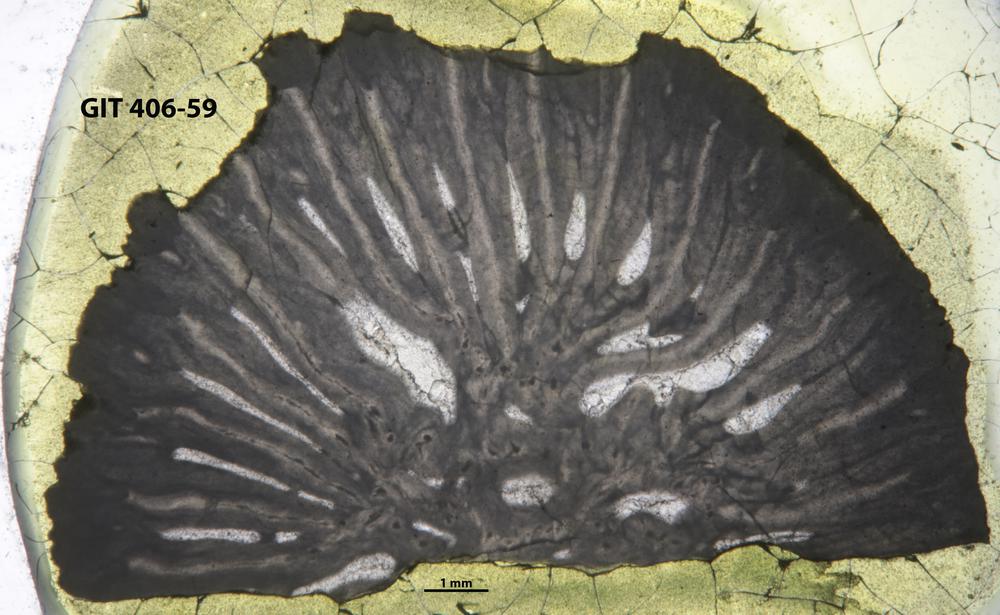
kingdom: Animalia
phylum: Cnidaria
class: Anthozoa
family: Streptelasmatidae
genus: Grewingkia
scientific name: Grewingkia
